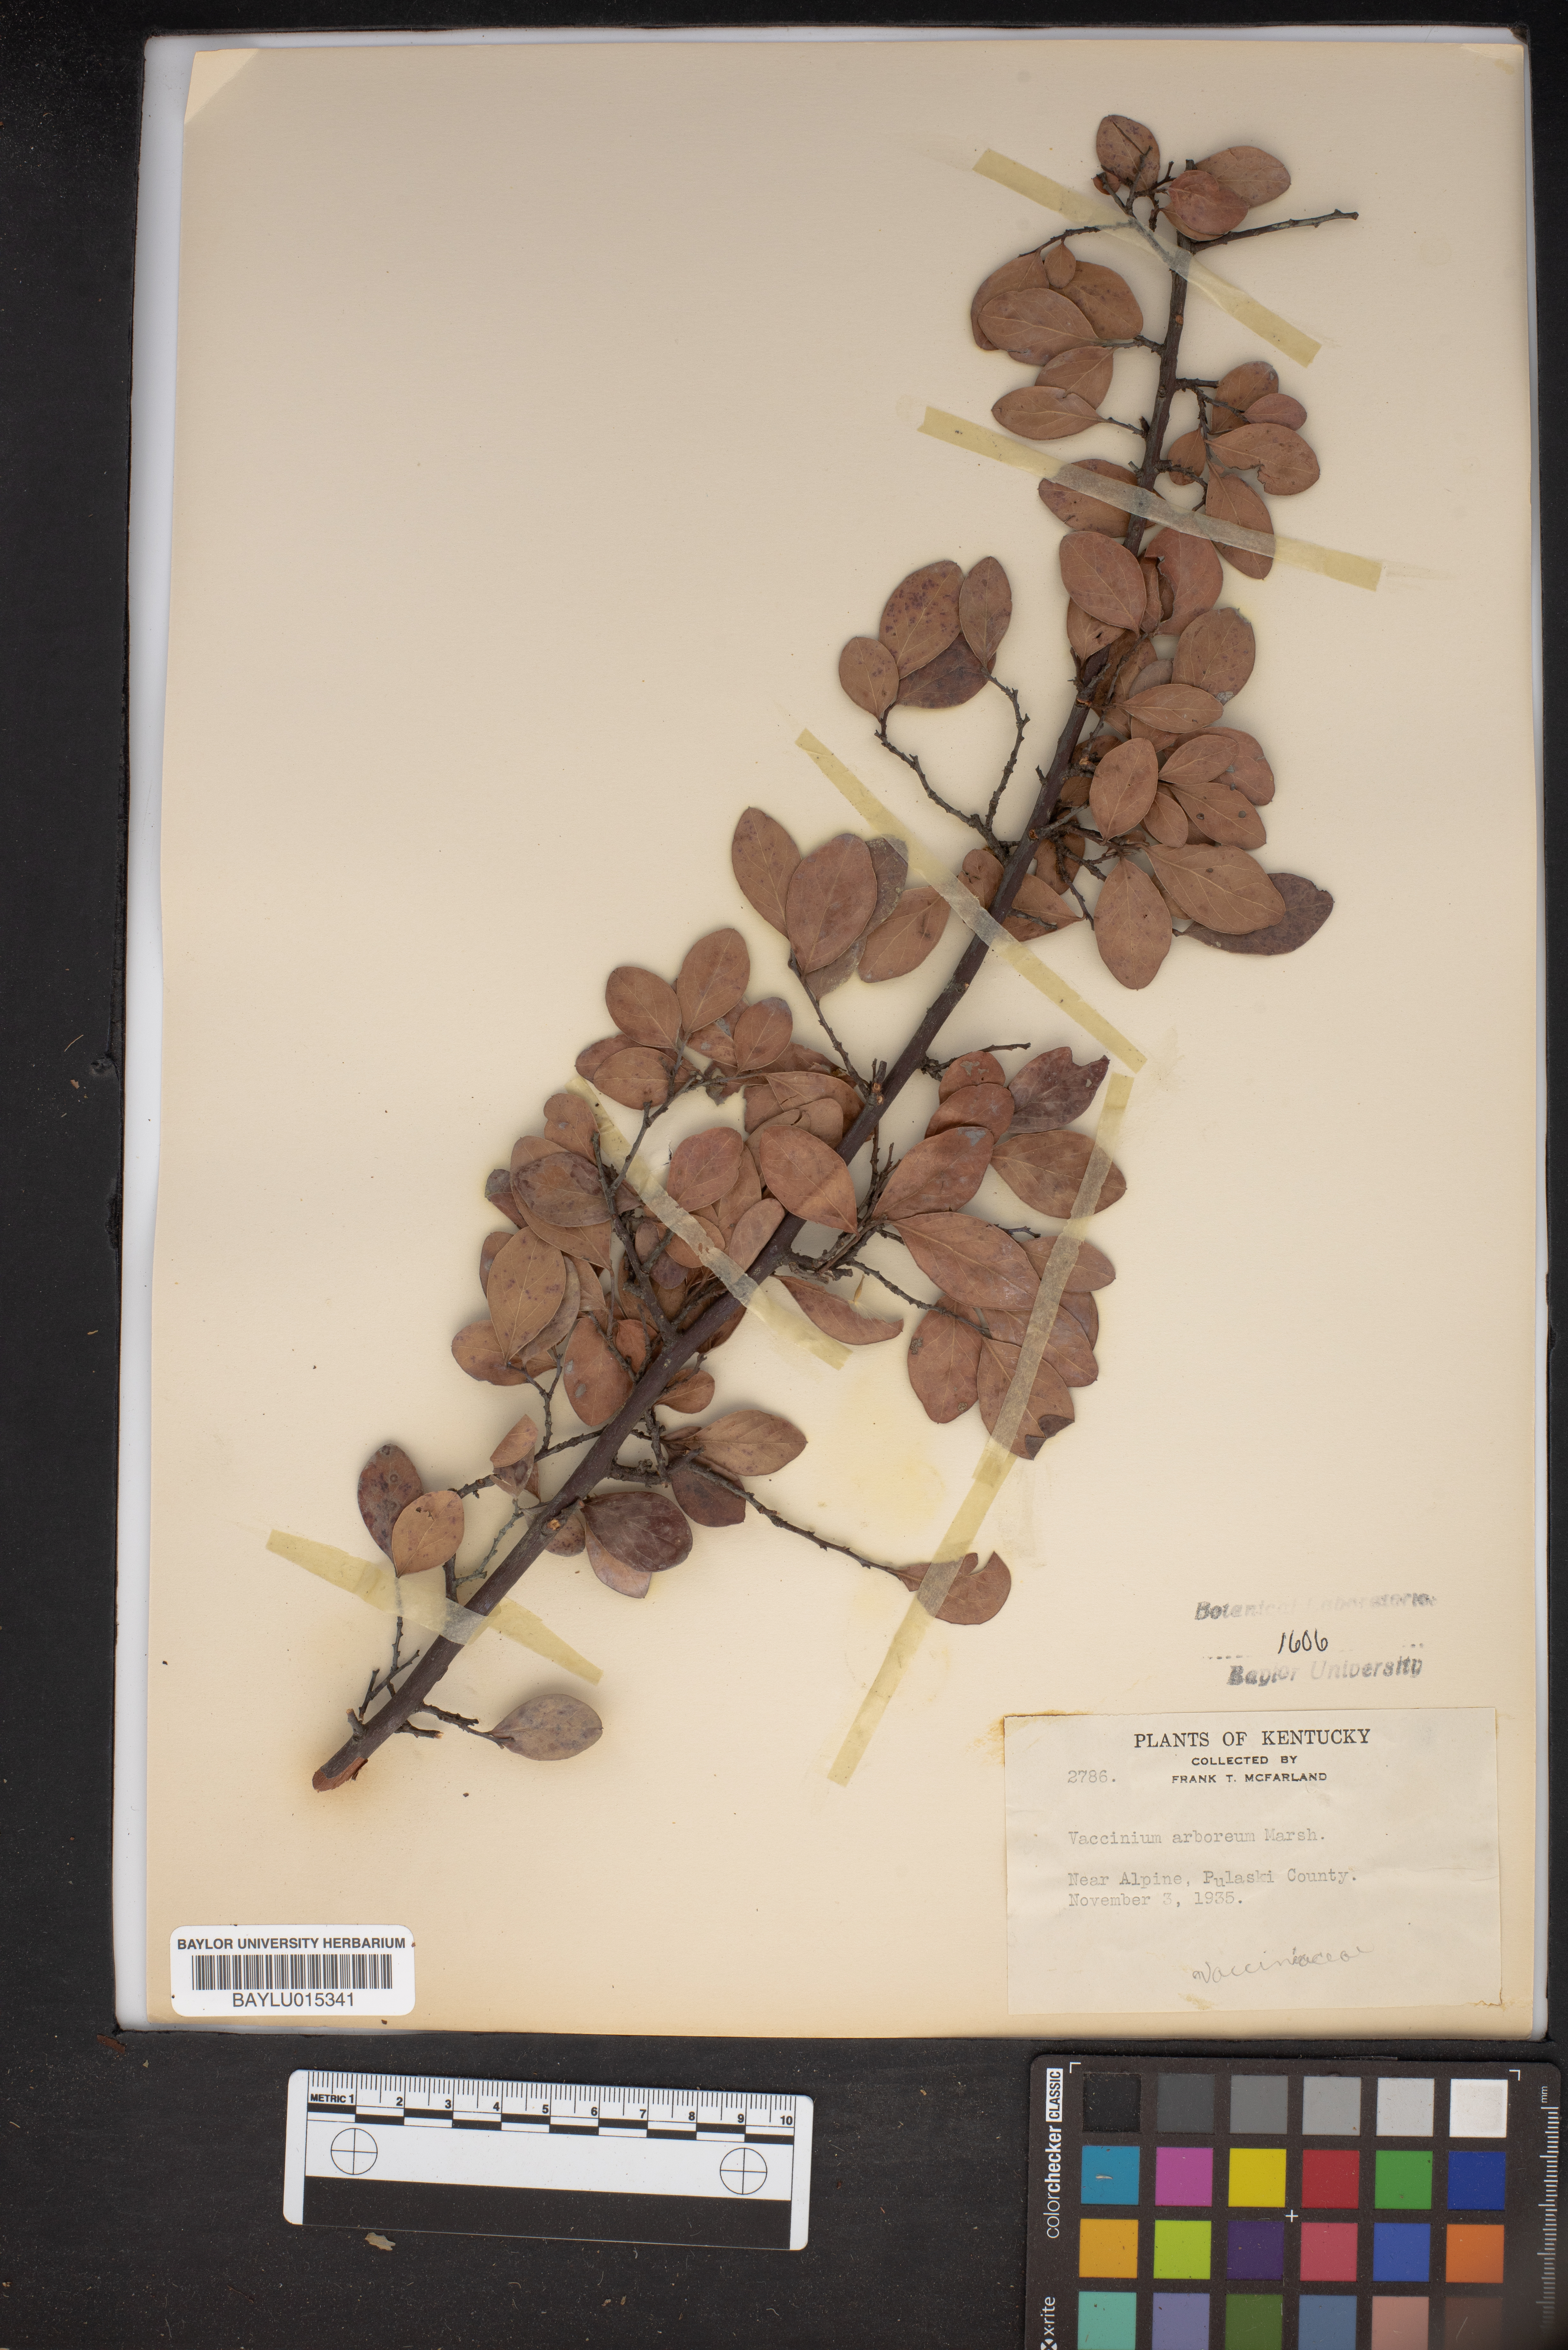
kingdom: Plantae
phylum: Tracheophyta
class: Magnoliopsida
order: Ericales
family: Ericaceae
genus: Vaccinium
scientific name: Vaccinium arboreum
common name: Farkleberry
